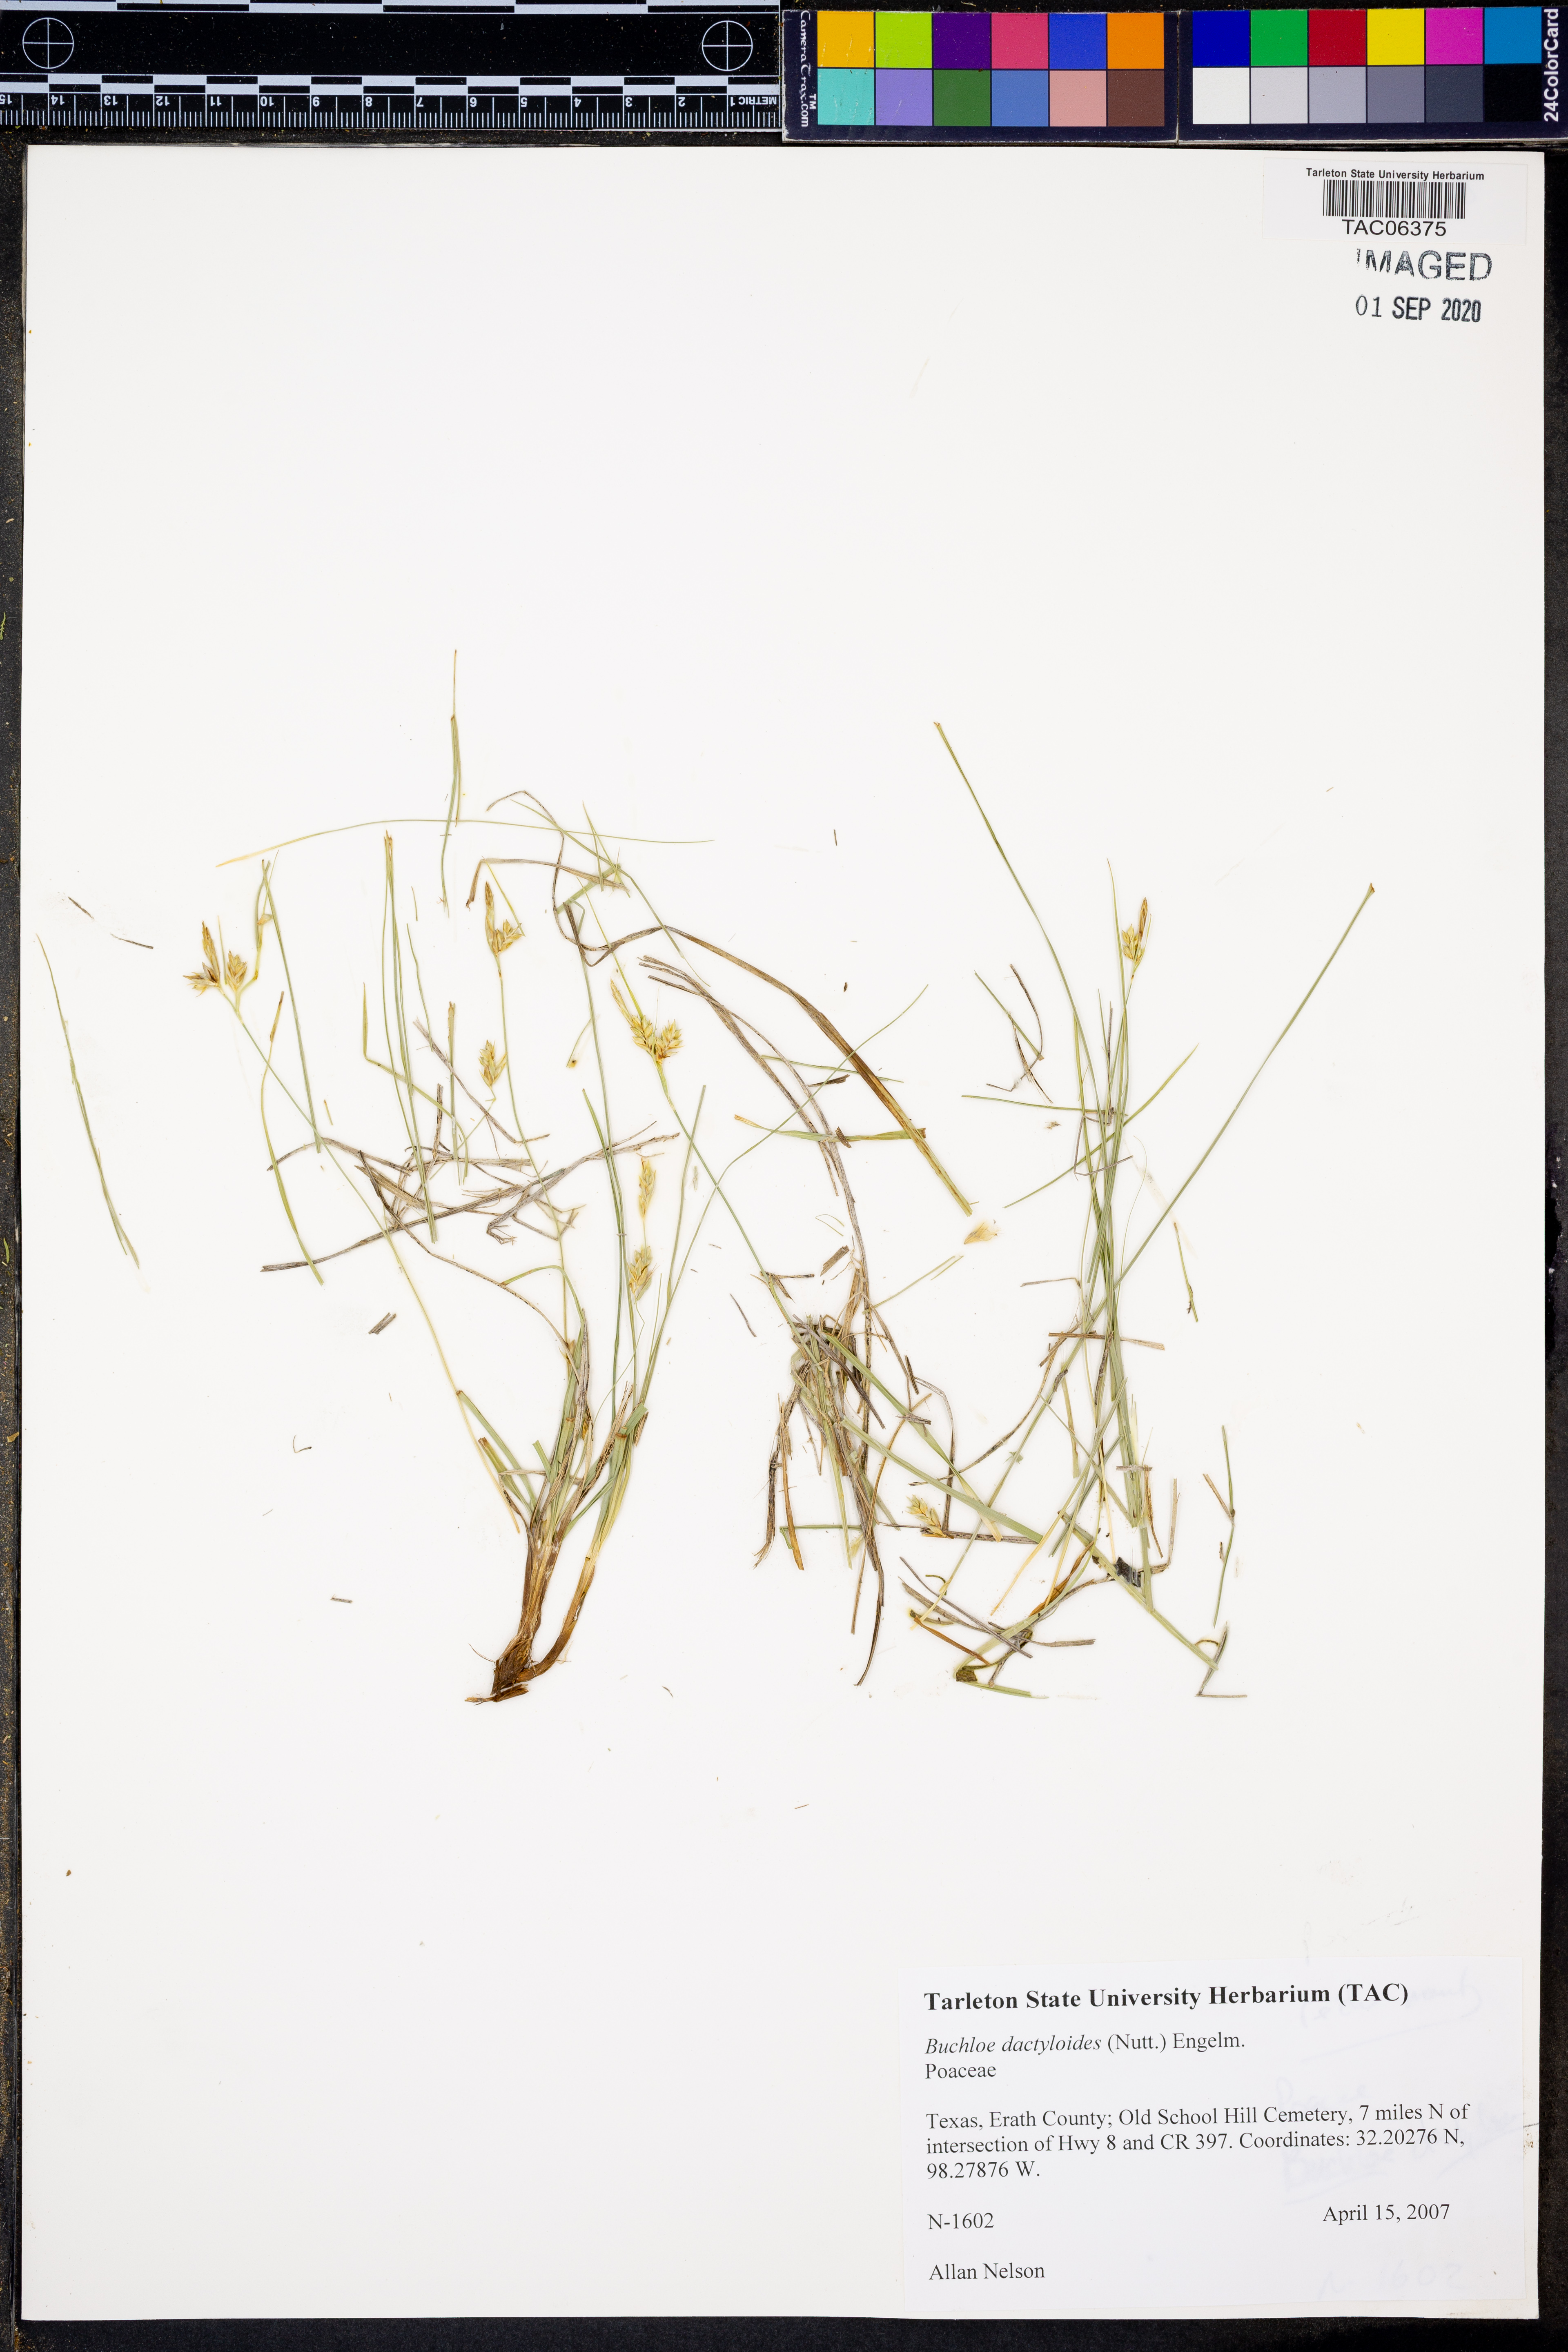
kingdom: Plantae
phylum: Tracheophyta
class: Liliopsida
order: Poales
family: Poaceae
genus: Bouteloua
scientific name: Bouteloua dactyloides
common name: Buffalo grass
